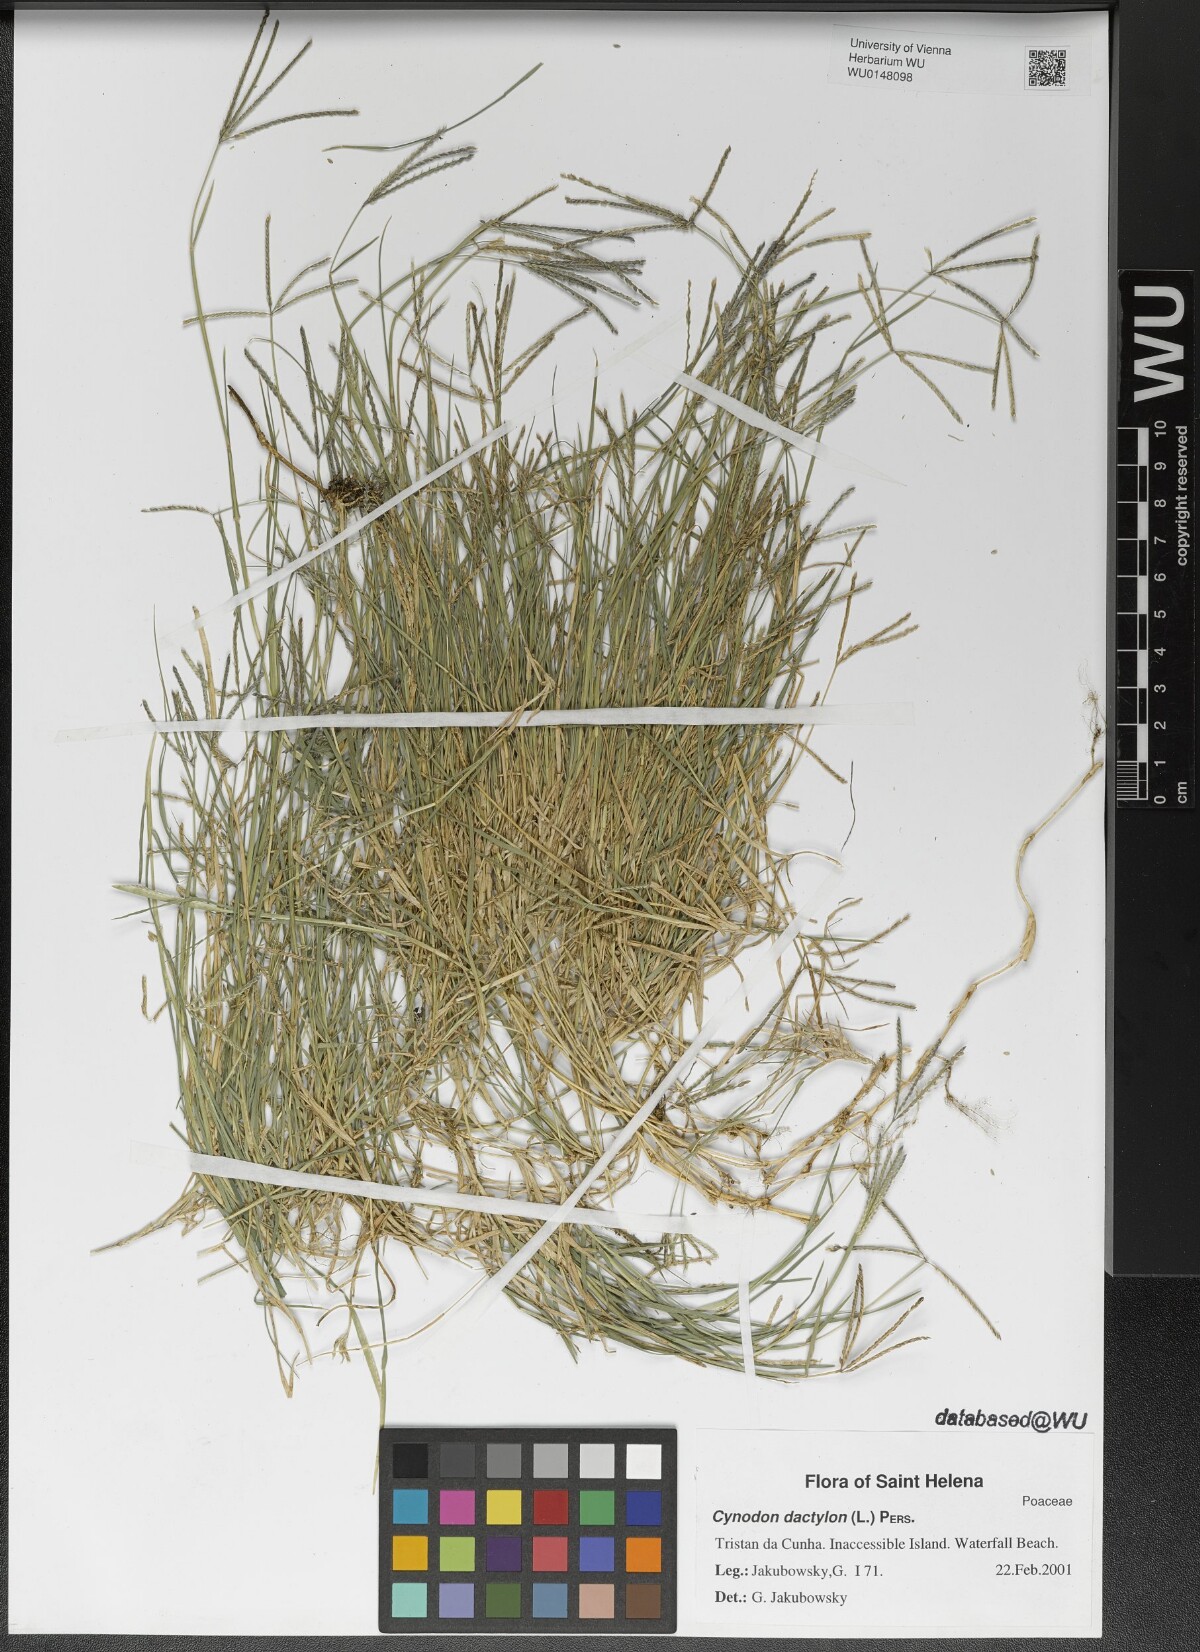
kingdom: Plantae
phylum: Tracheophyta
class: Liliopsida
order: Poales
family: Poaceae
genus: Cynodon
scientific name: Cynodon dactylon
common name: Bermuda grass
